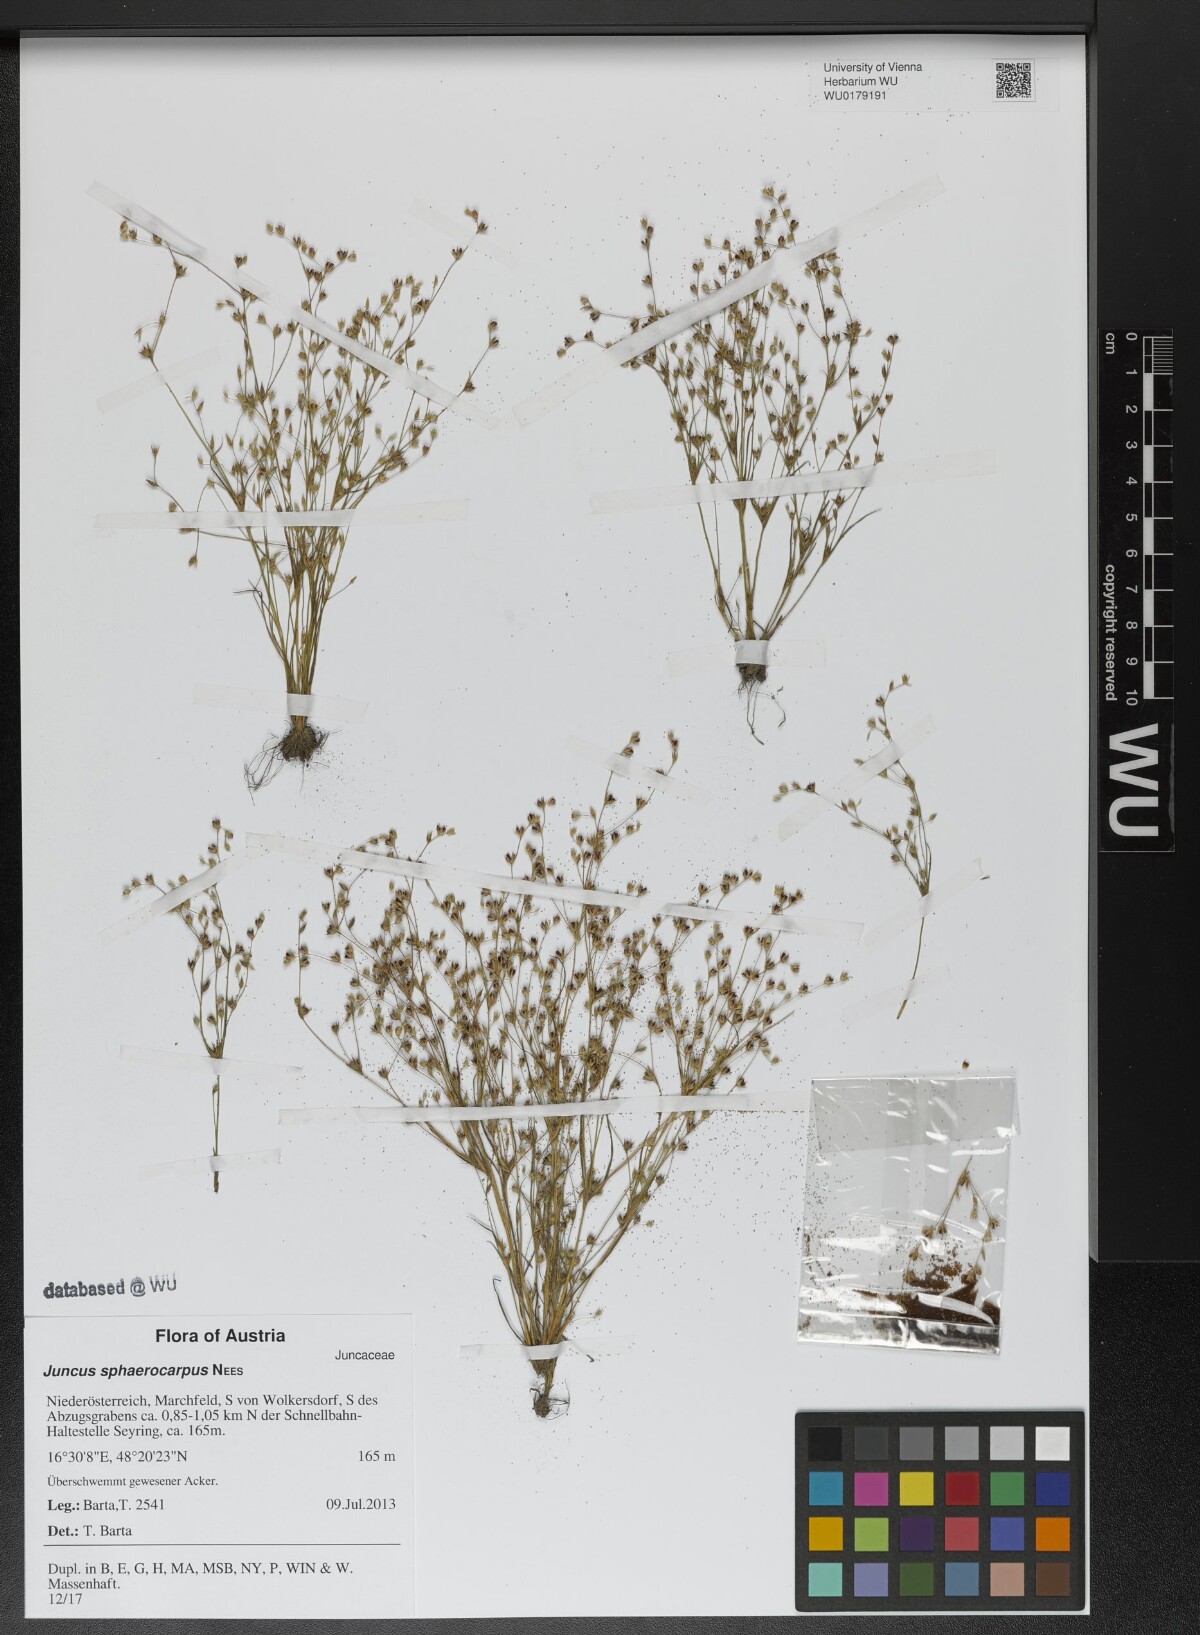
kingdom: Plantae
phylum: Tracheophyta
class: Liliopsida
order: Poales
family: Juncaceae
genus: Juncus
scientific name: Juncus sphaerocarpus
